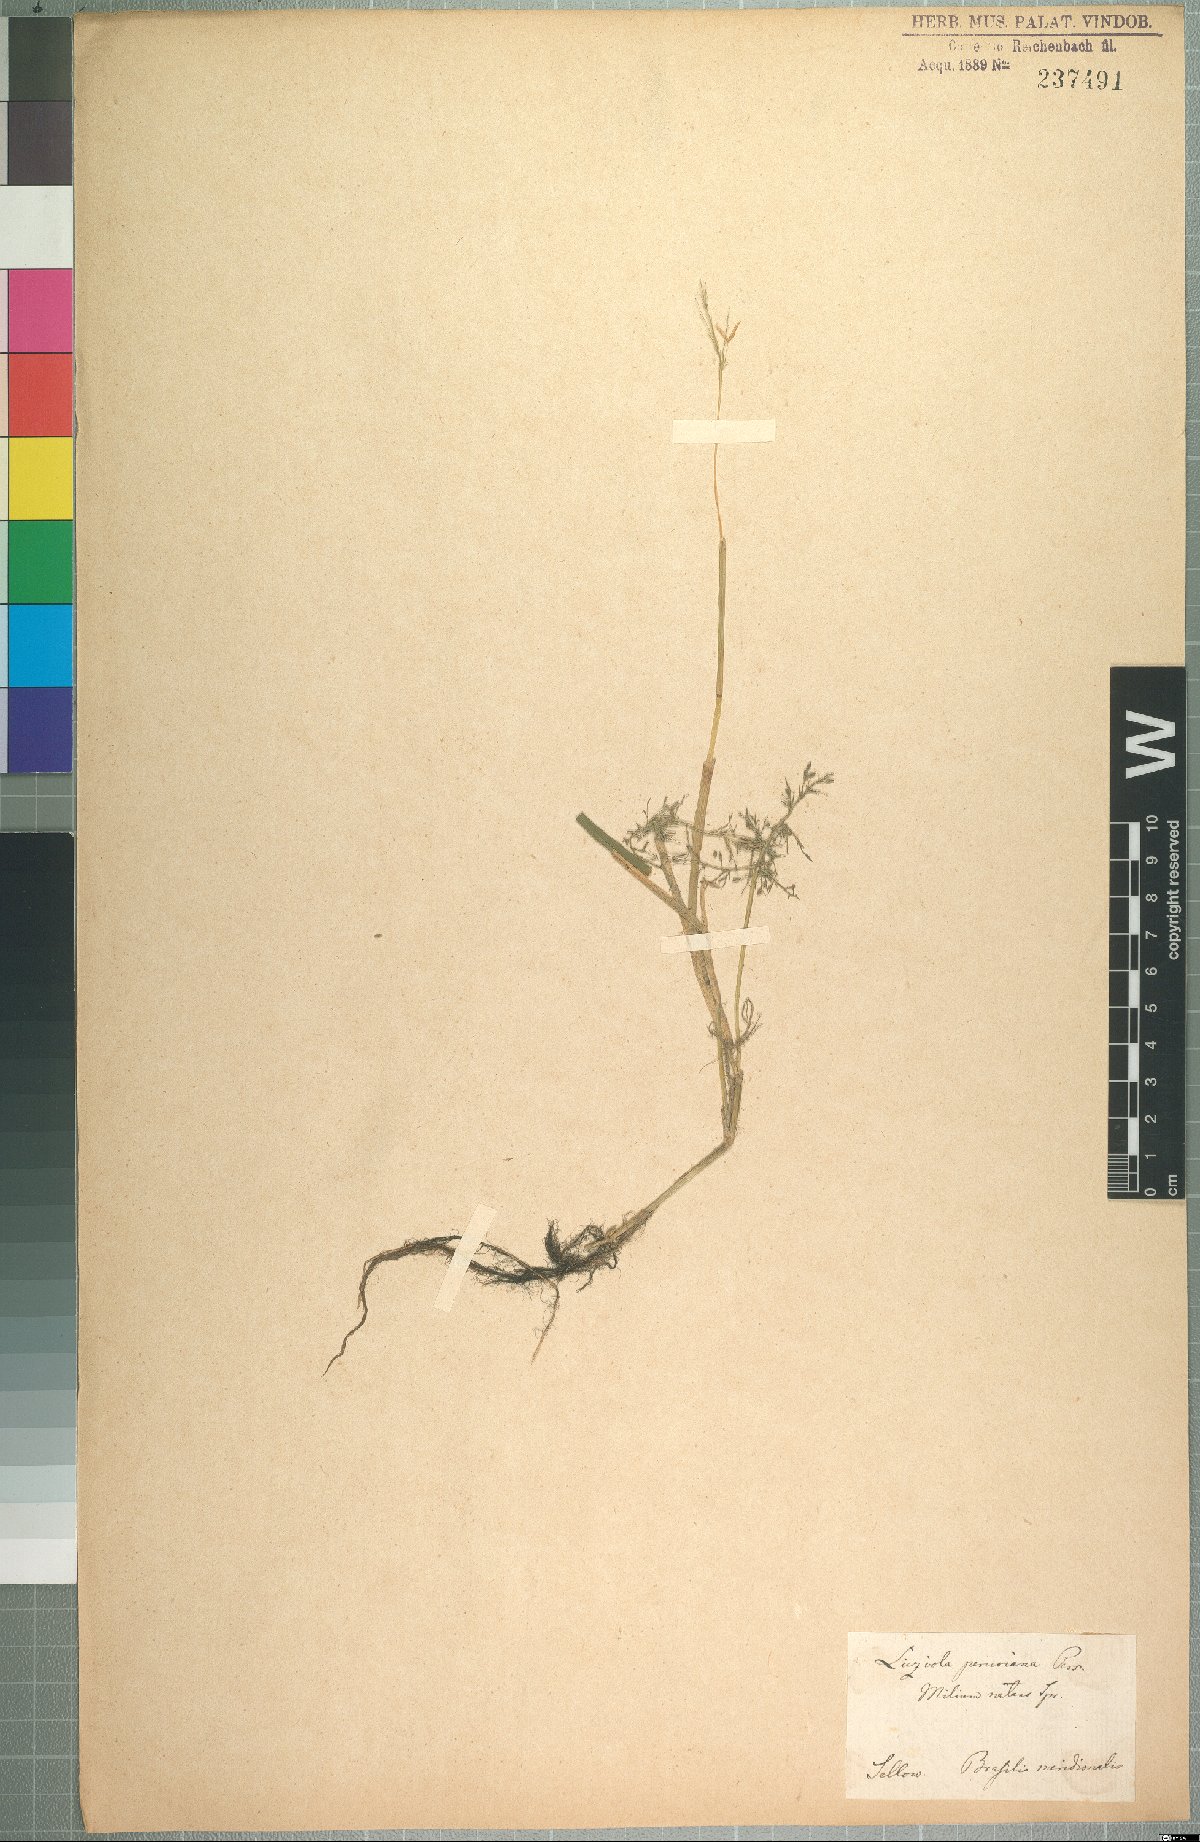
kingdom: Plantae
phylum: Tracheophyta
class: Liliopsida
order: Poales
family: Poaceae
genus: Luziola
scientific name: Luziola peruviana
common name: Peruvian watergrass
